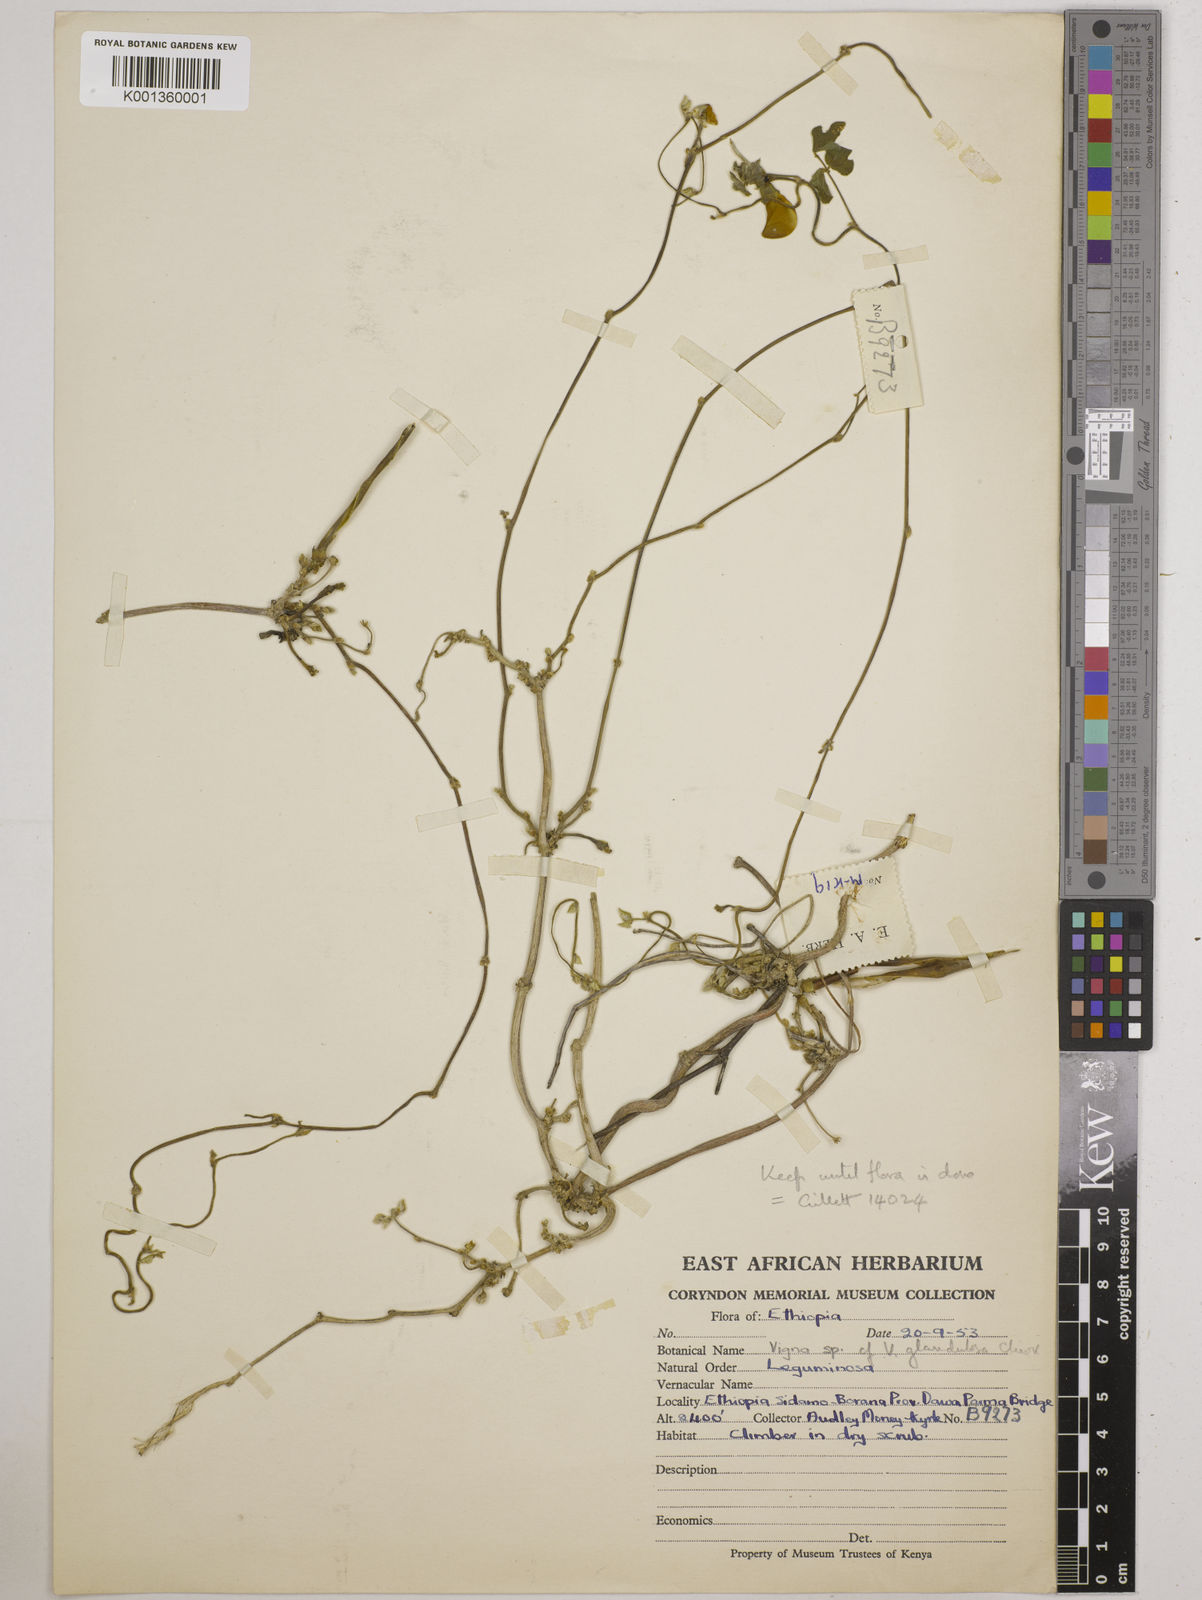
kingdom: Plantae
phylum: Tracheophyta
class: Magnoliopsida
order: Fabales
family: Fabaceae
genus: Vigna
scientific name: Vigna frutescens
